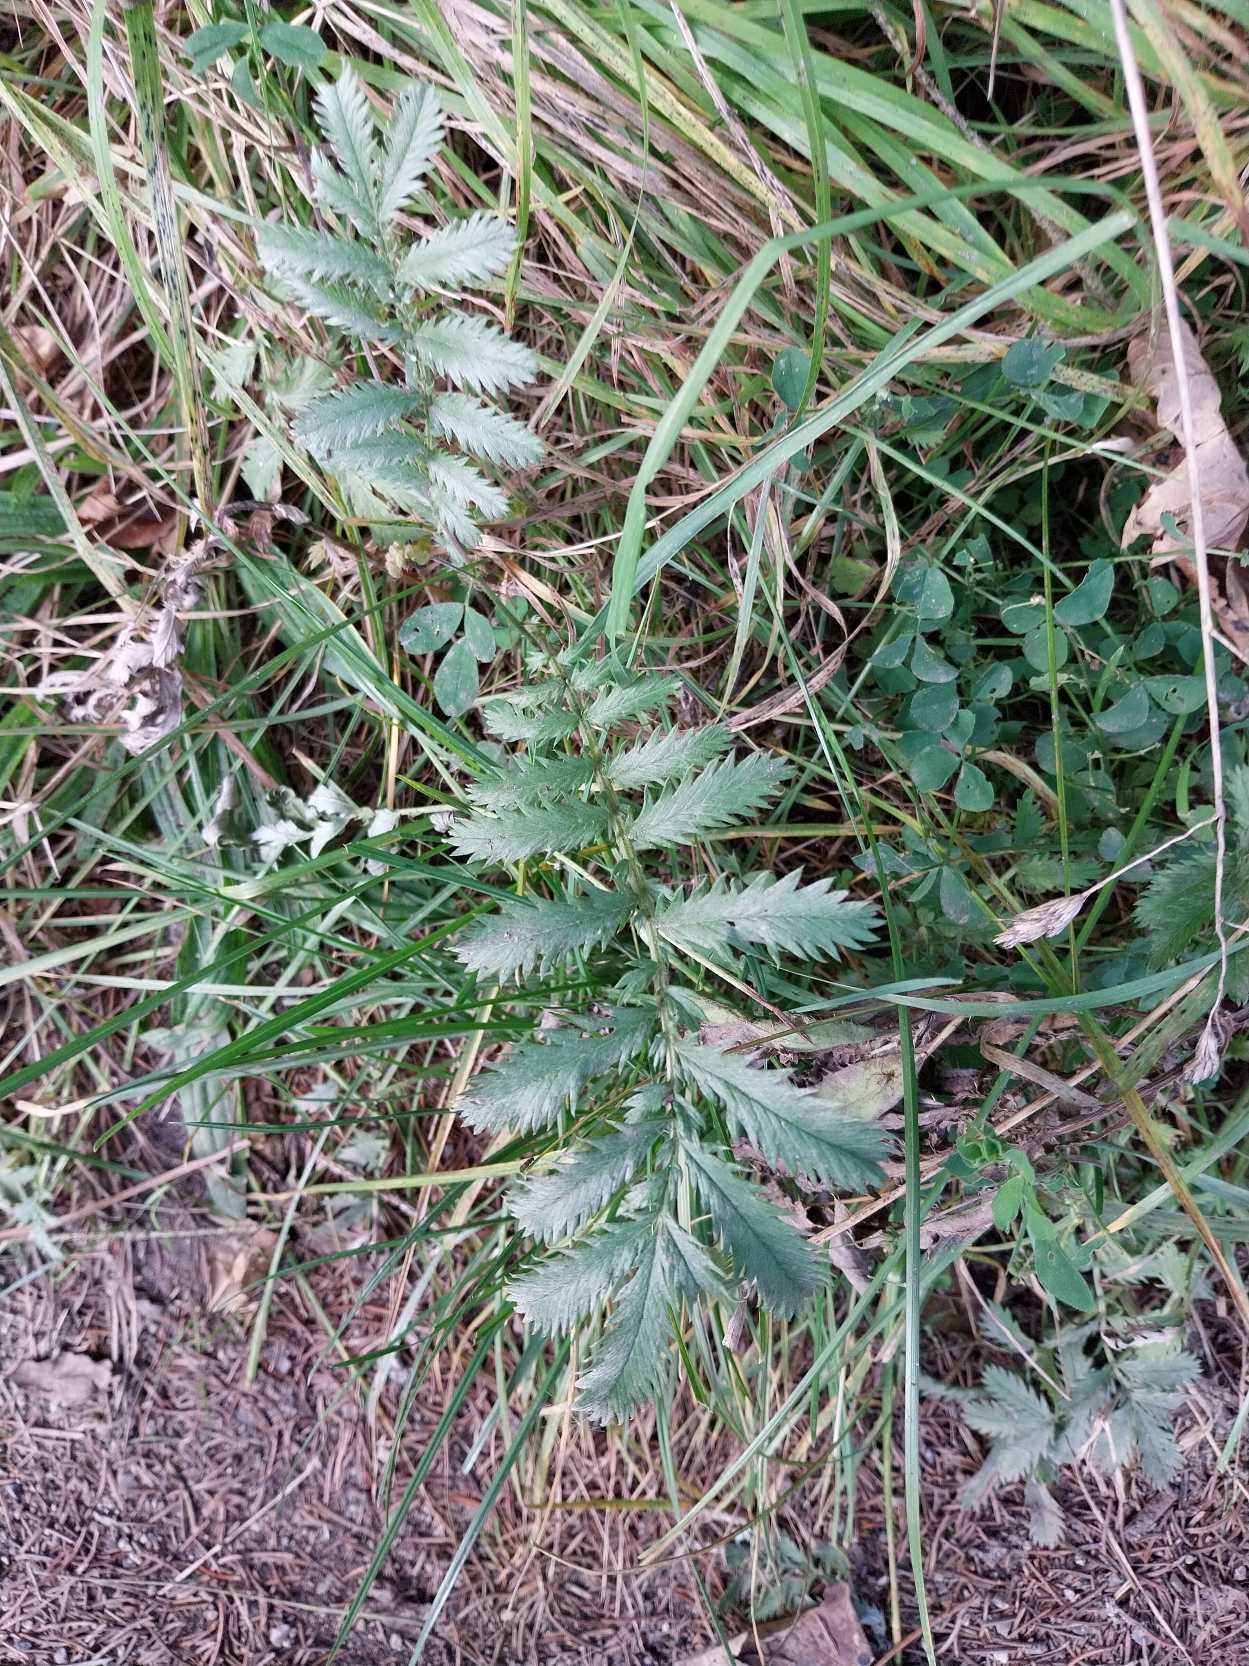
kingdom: Plantae
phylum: Tracheophyta
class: Magnoliopsida
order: Rosales
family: Rosaceae
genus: Argentina
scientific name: Argentina anserina
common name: Gåsepotentil
